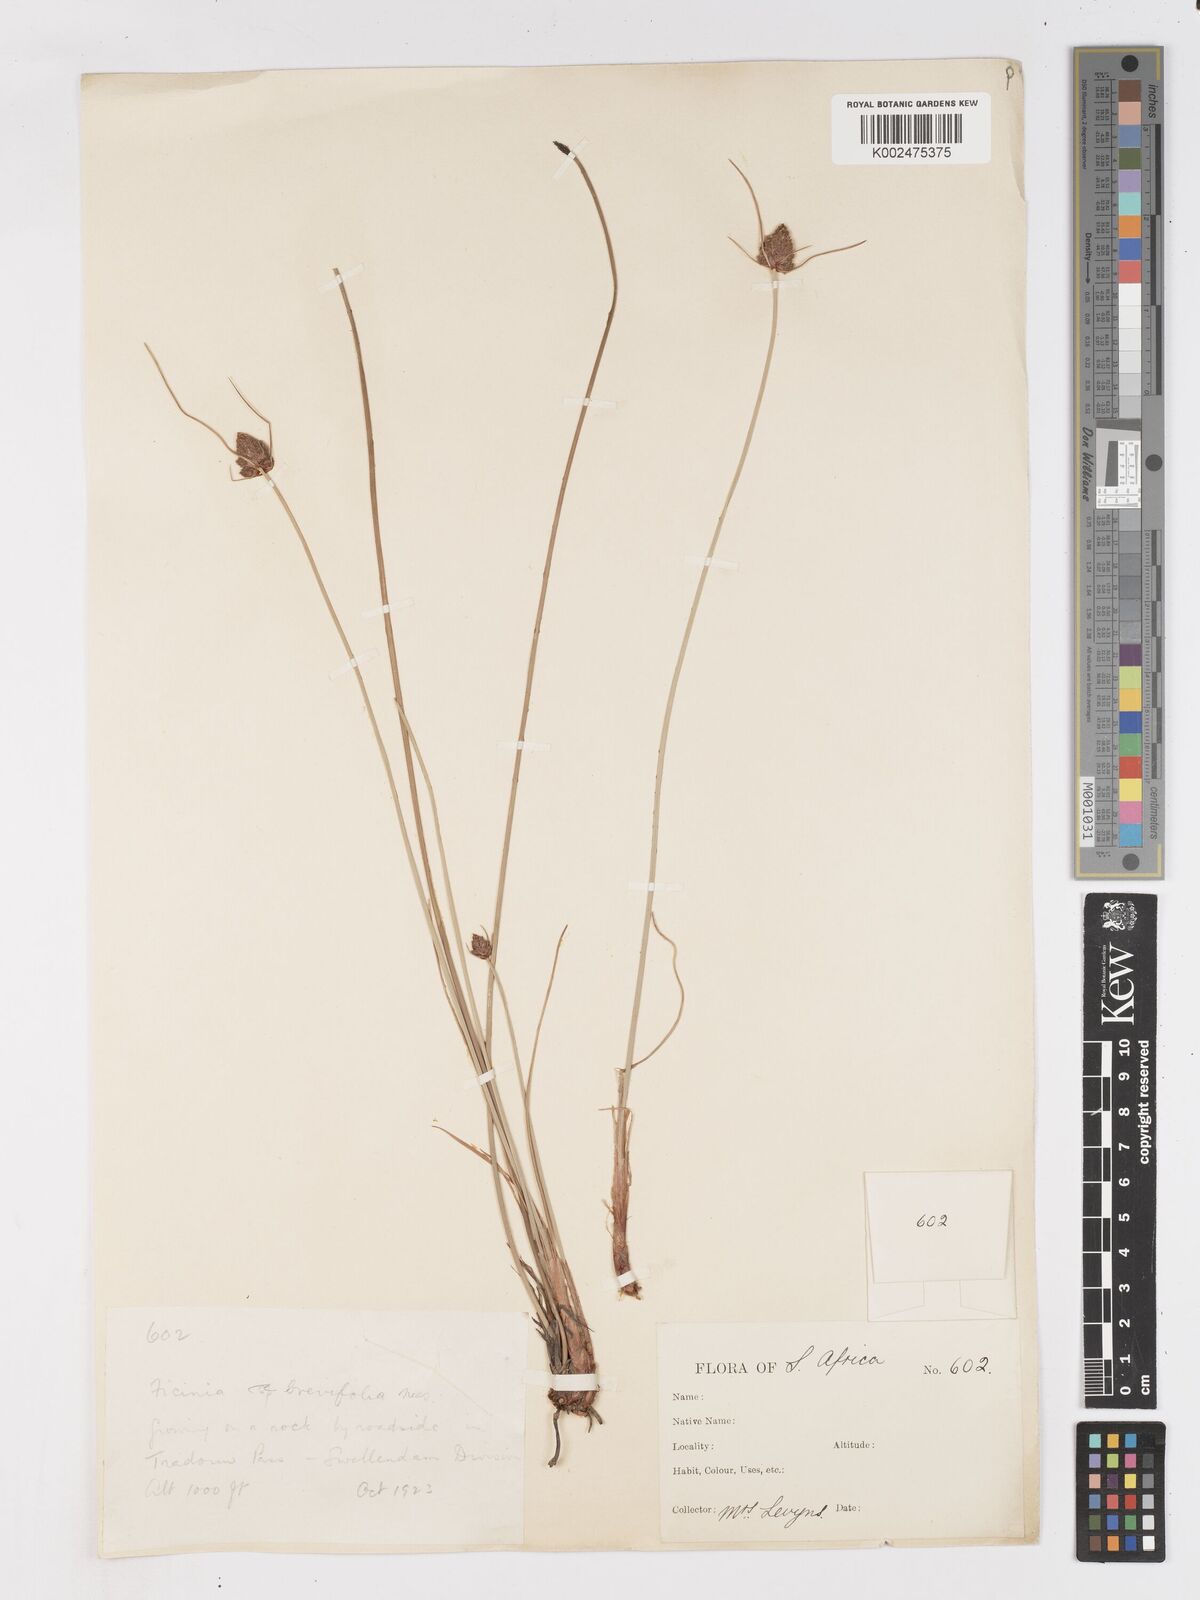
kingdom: Plantae
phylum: Tracheophyta
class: Liliopsida
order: Poales
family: Cyperaceae
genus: Ficinia
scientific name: Ficinia brevifolia
